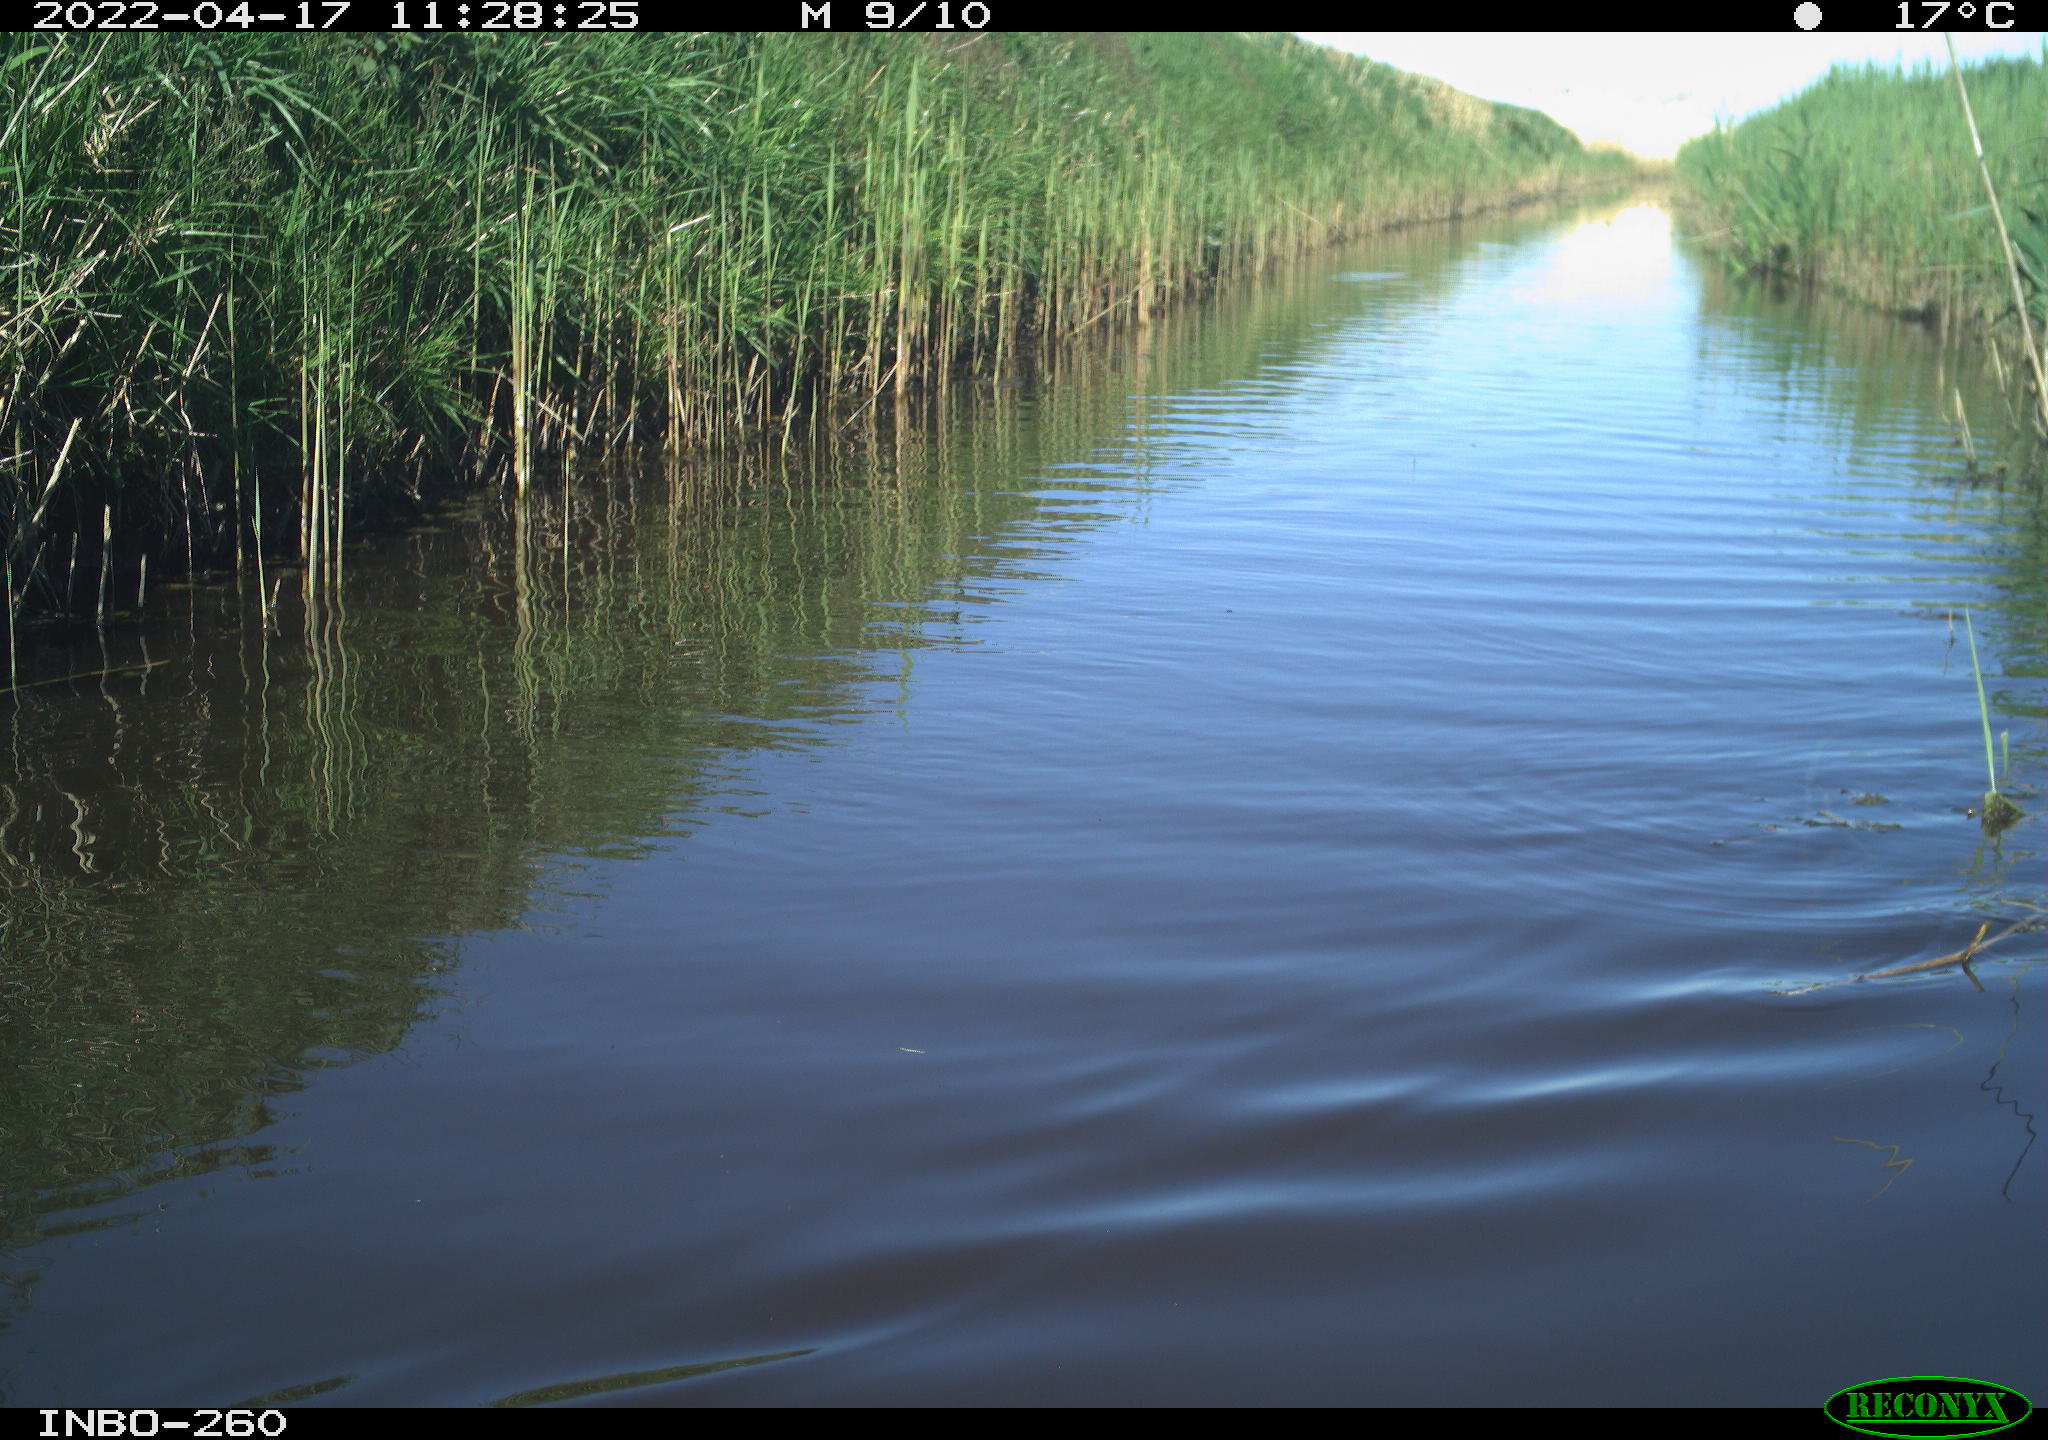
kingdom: Animalia
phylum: Chordata
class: Aves
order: Gruiformes
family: Rallidae
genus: Fulica
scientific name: Fulica atra
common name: Eurasian coot
